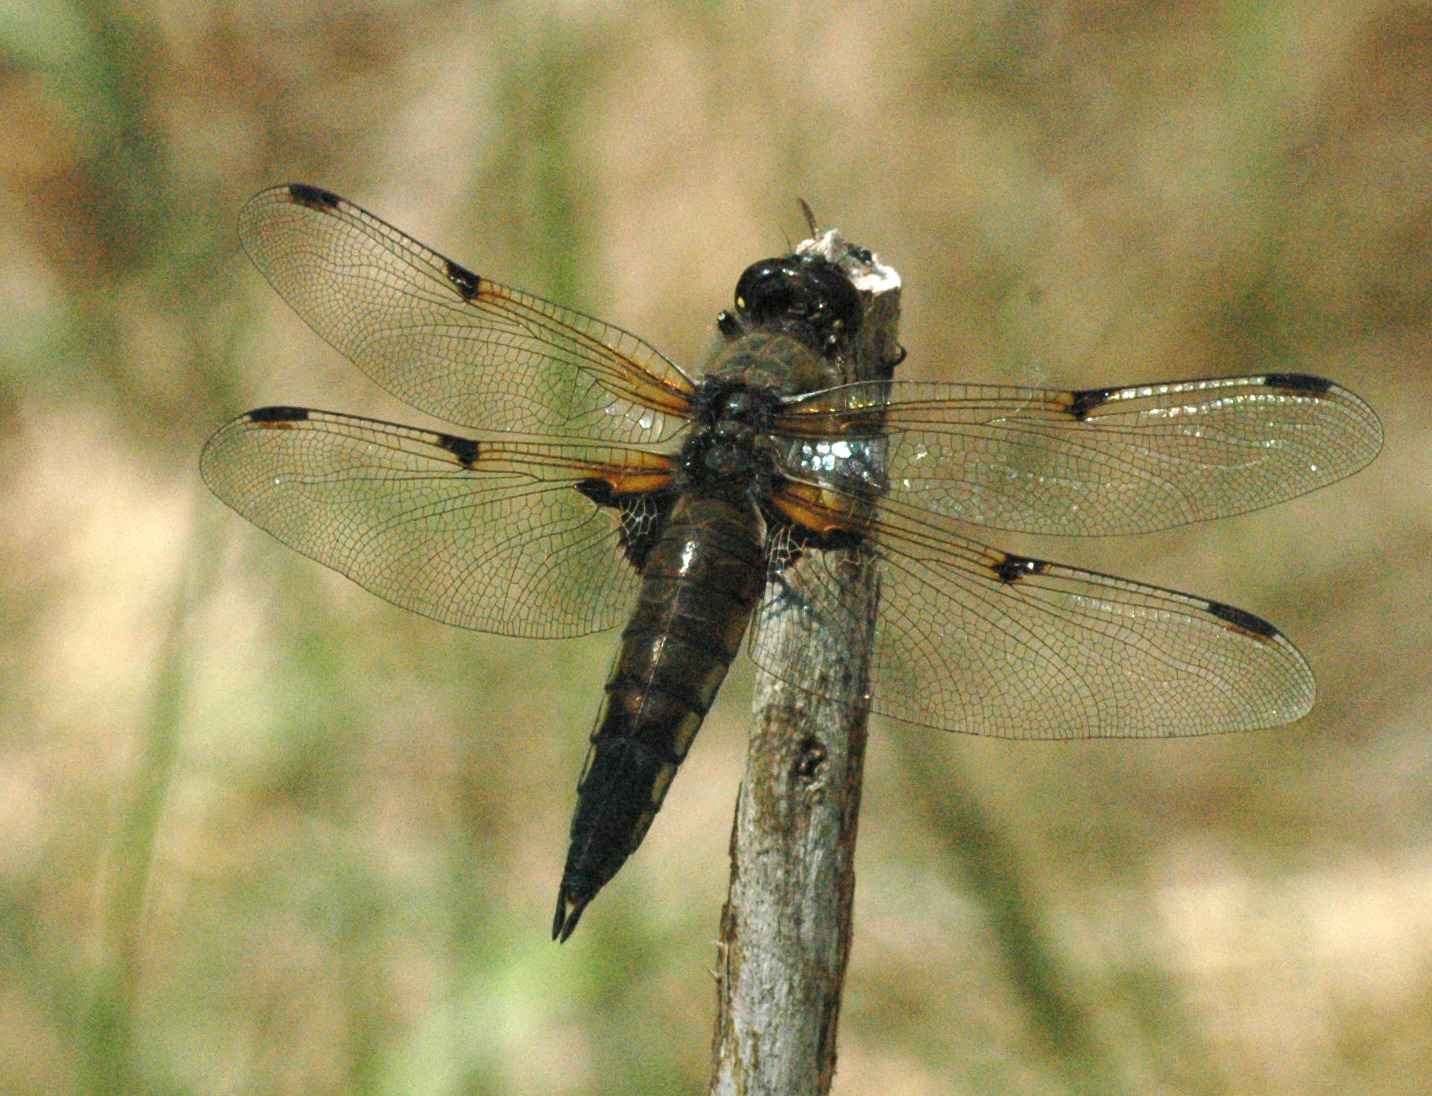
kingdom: Animalia
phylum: Arthropoda
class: Insecta
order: Odonata
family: Libellulidae
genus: Libellula
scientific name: Libellula quadrimaculata
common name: Fireplettet libel
